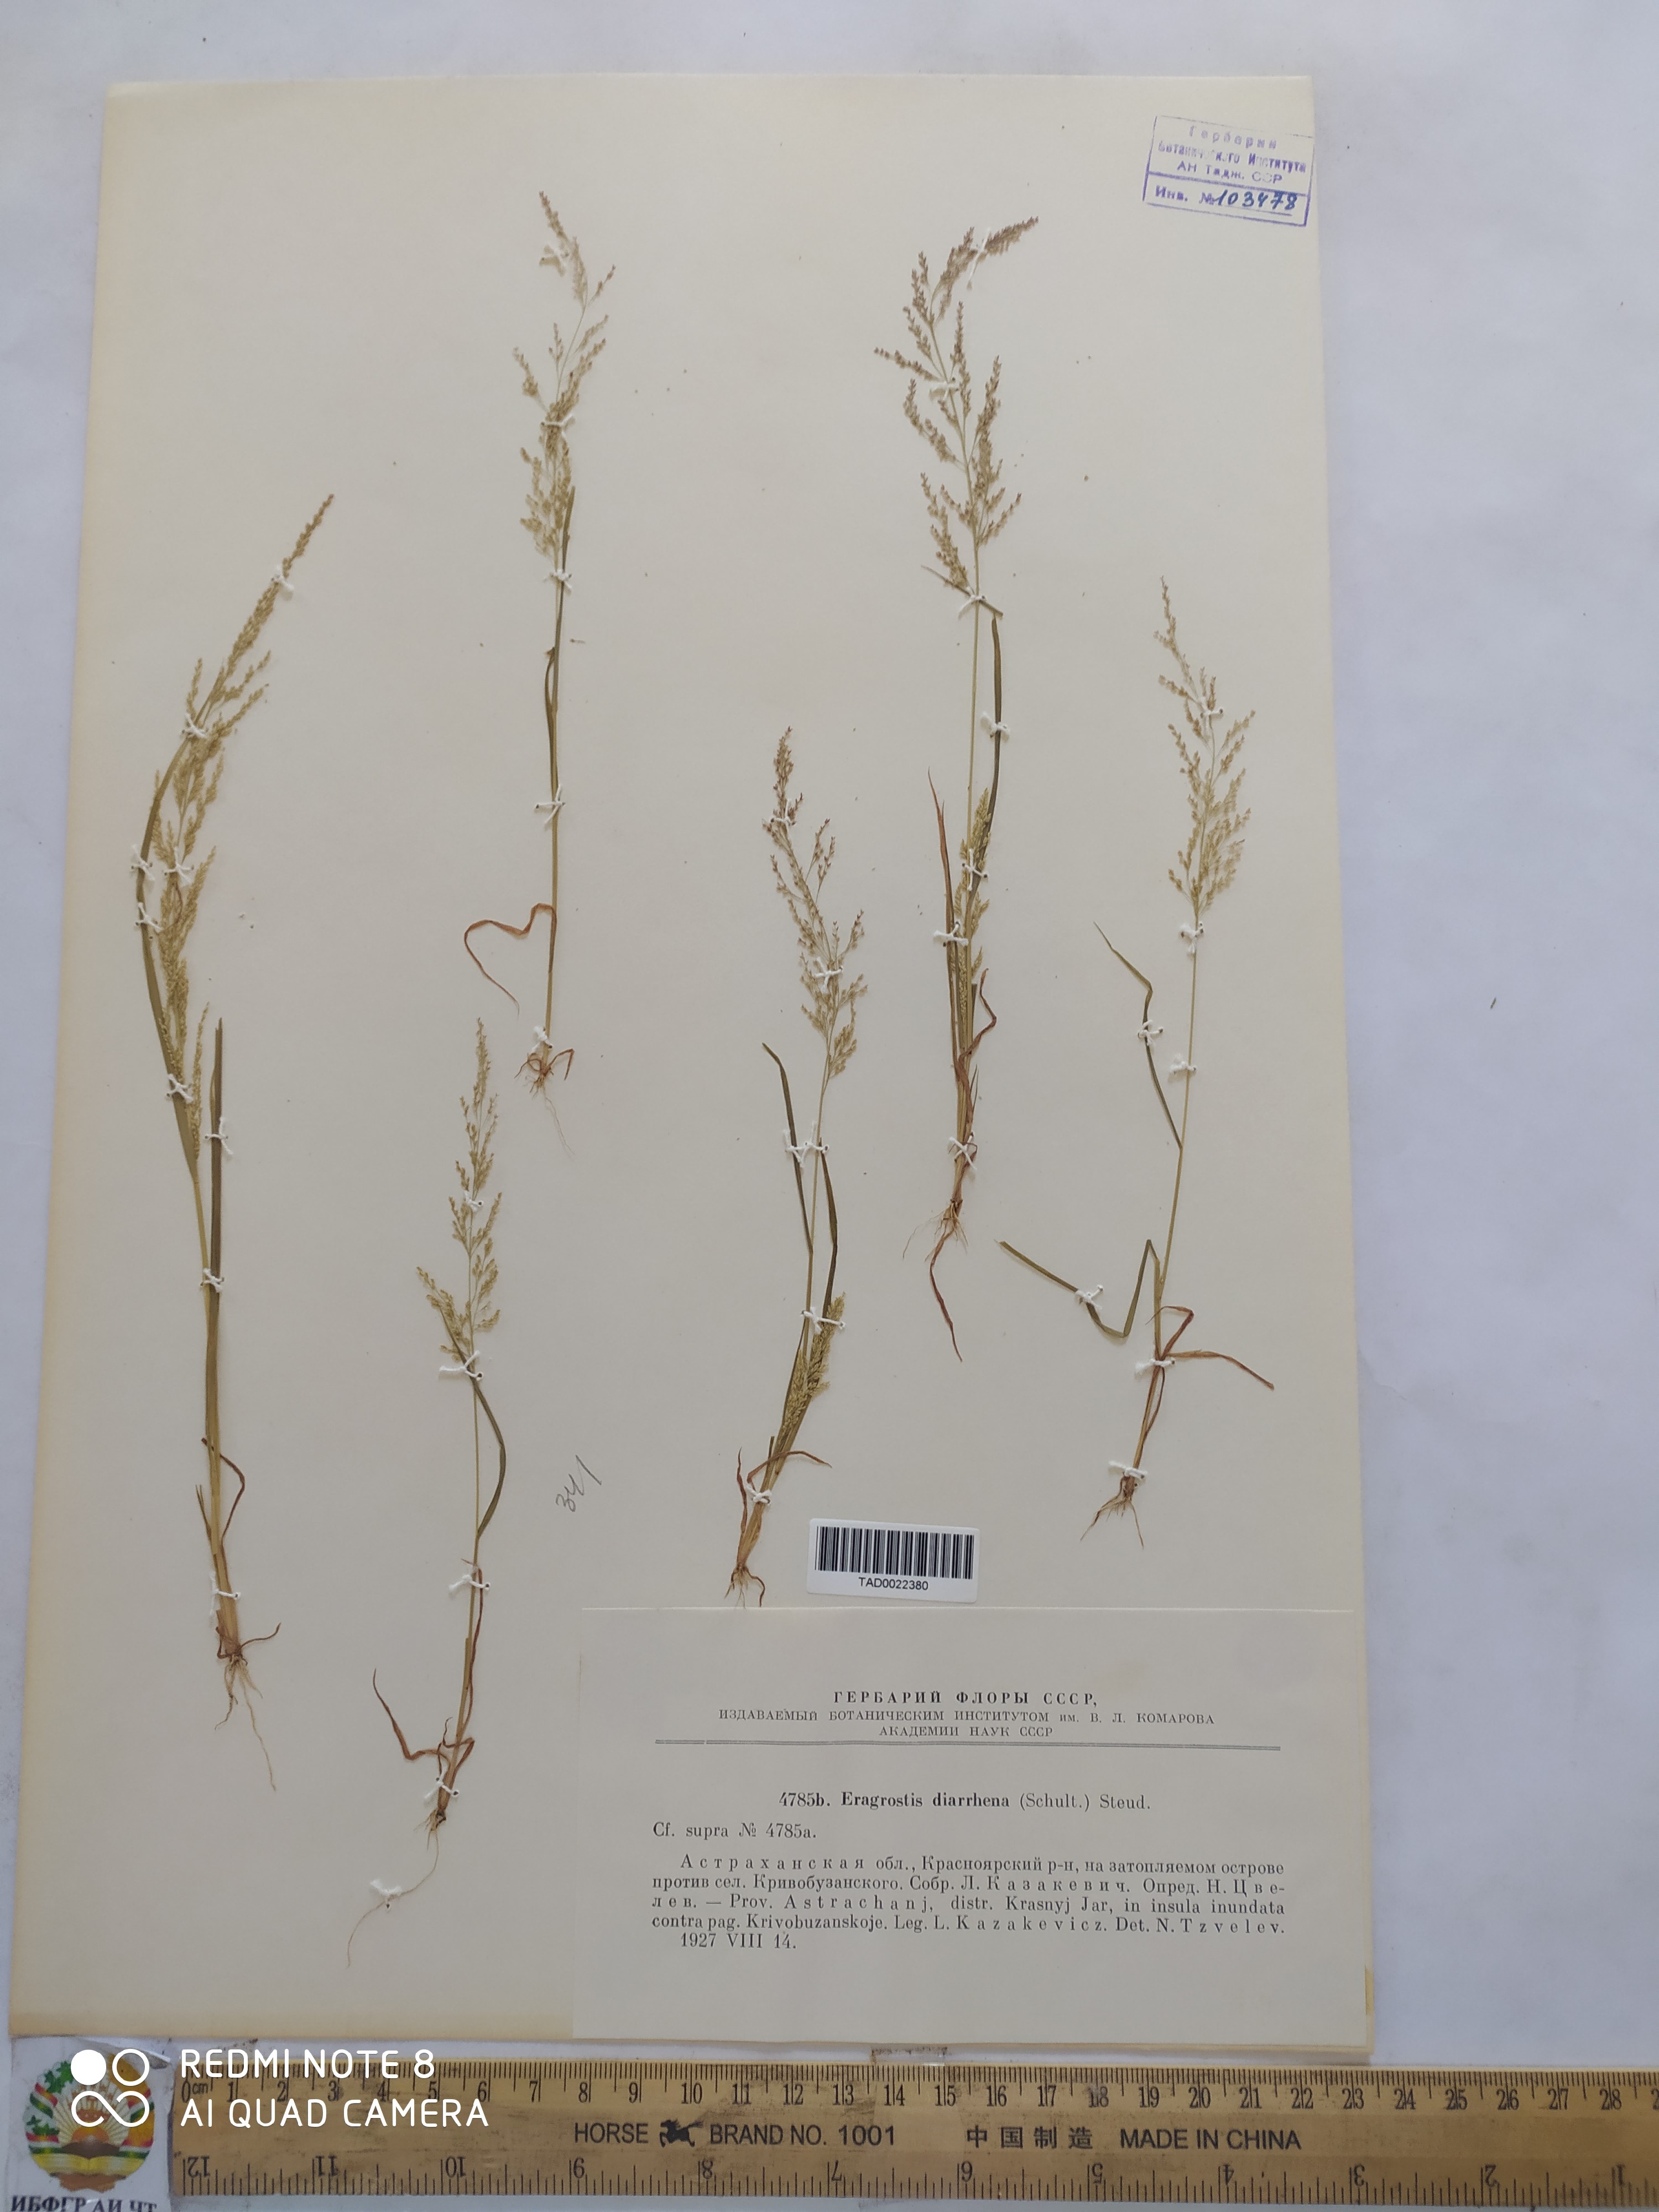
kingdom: Plantae
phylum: Tracheophyta
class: Liliopsida
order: Poales
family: Poaceae
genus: Eragrostis
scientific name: Eragrostis japonica
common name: Pond lovegrass
